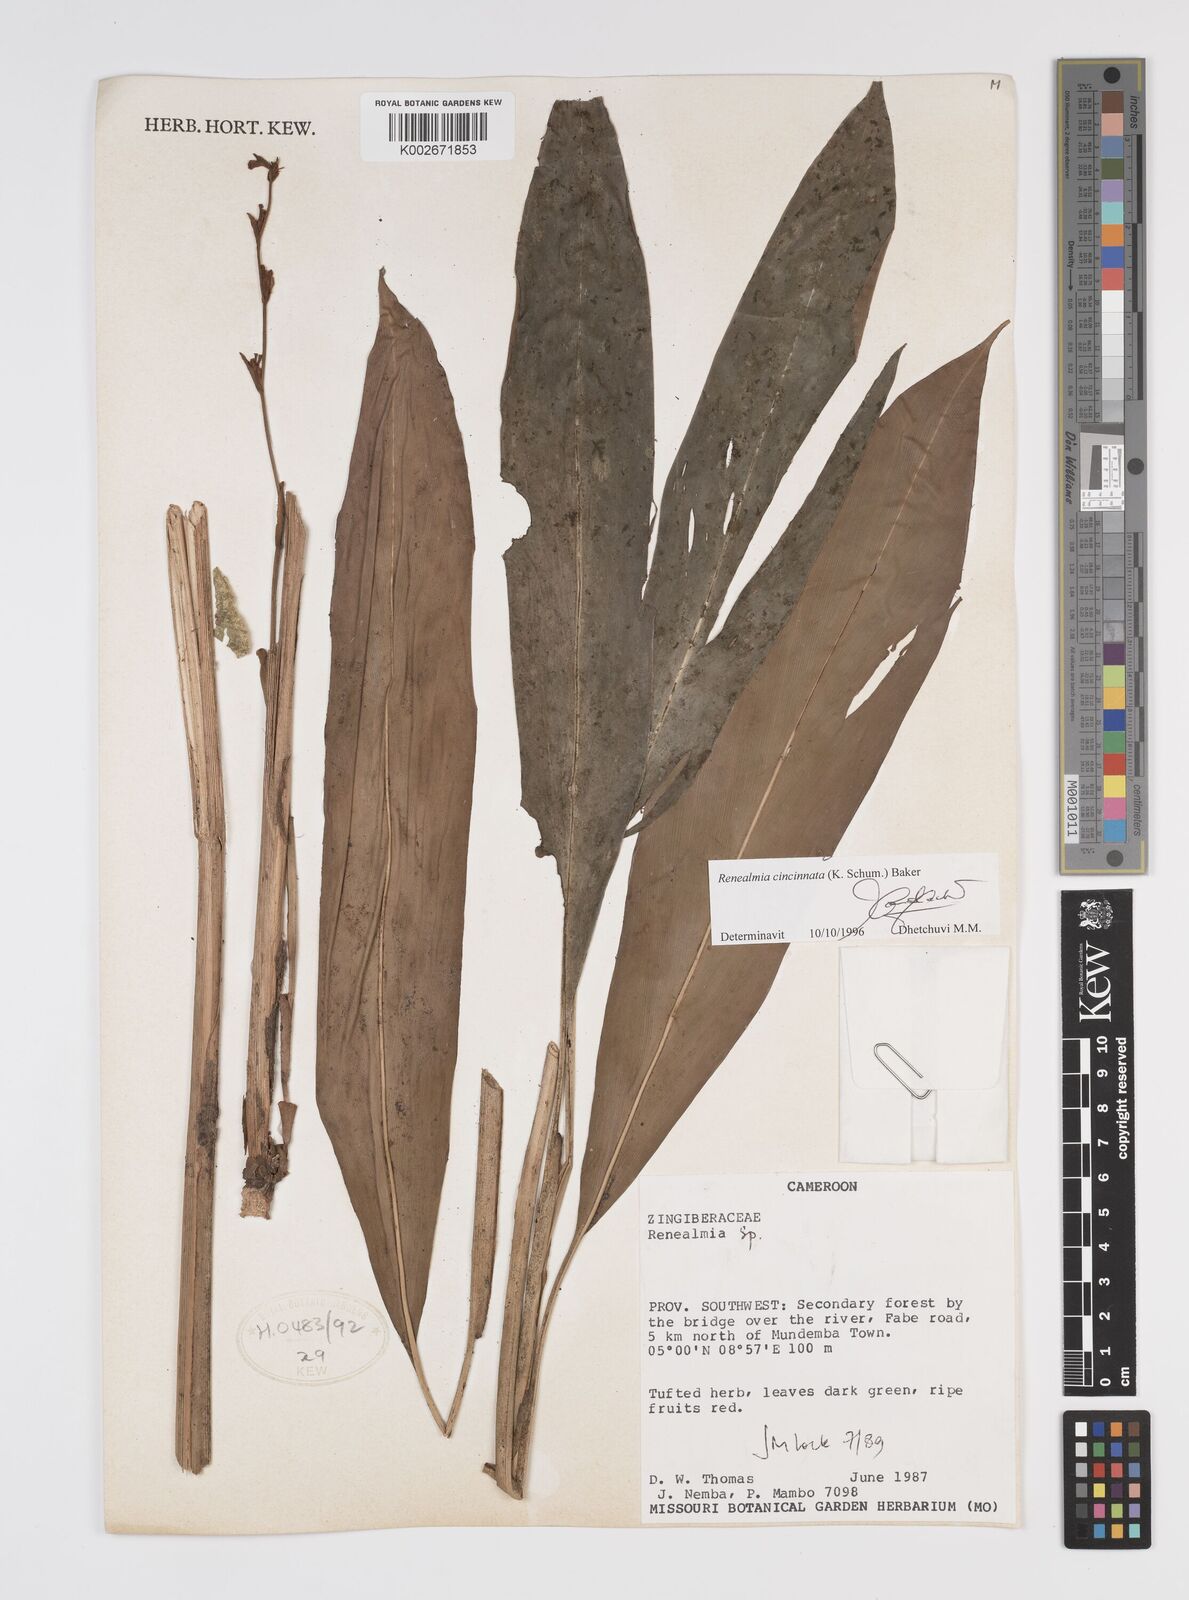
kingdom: Plantae
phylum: Tracheophyta
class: Liliopsida
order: Zingiberales
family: Zingiberaceae
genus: Renealmia
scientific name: Renealmia cincinnata
